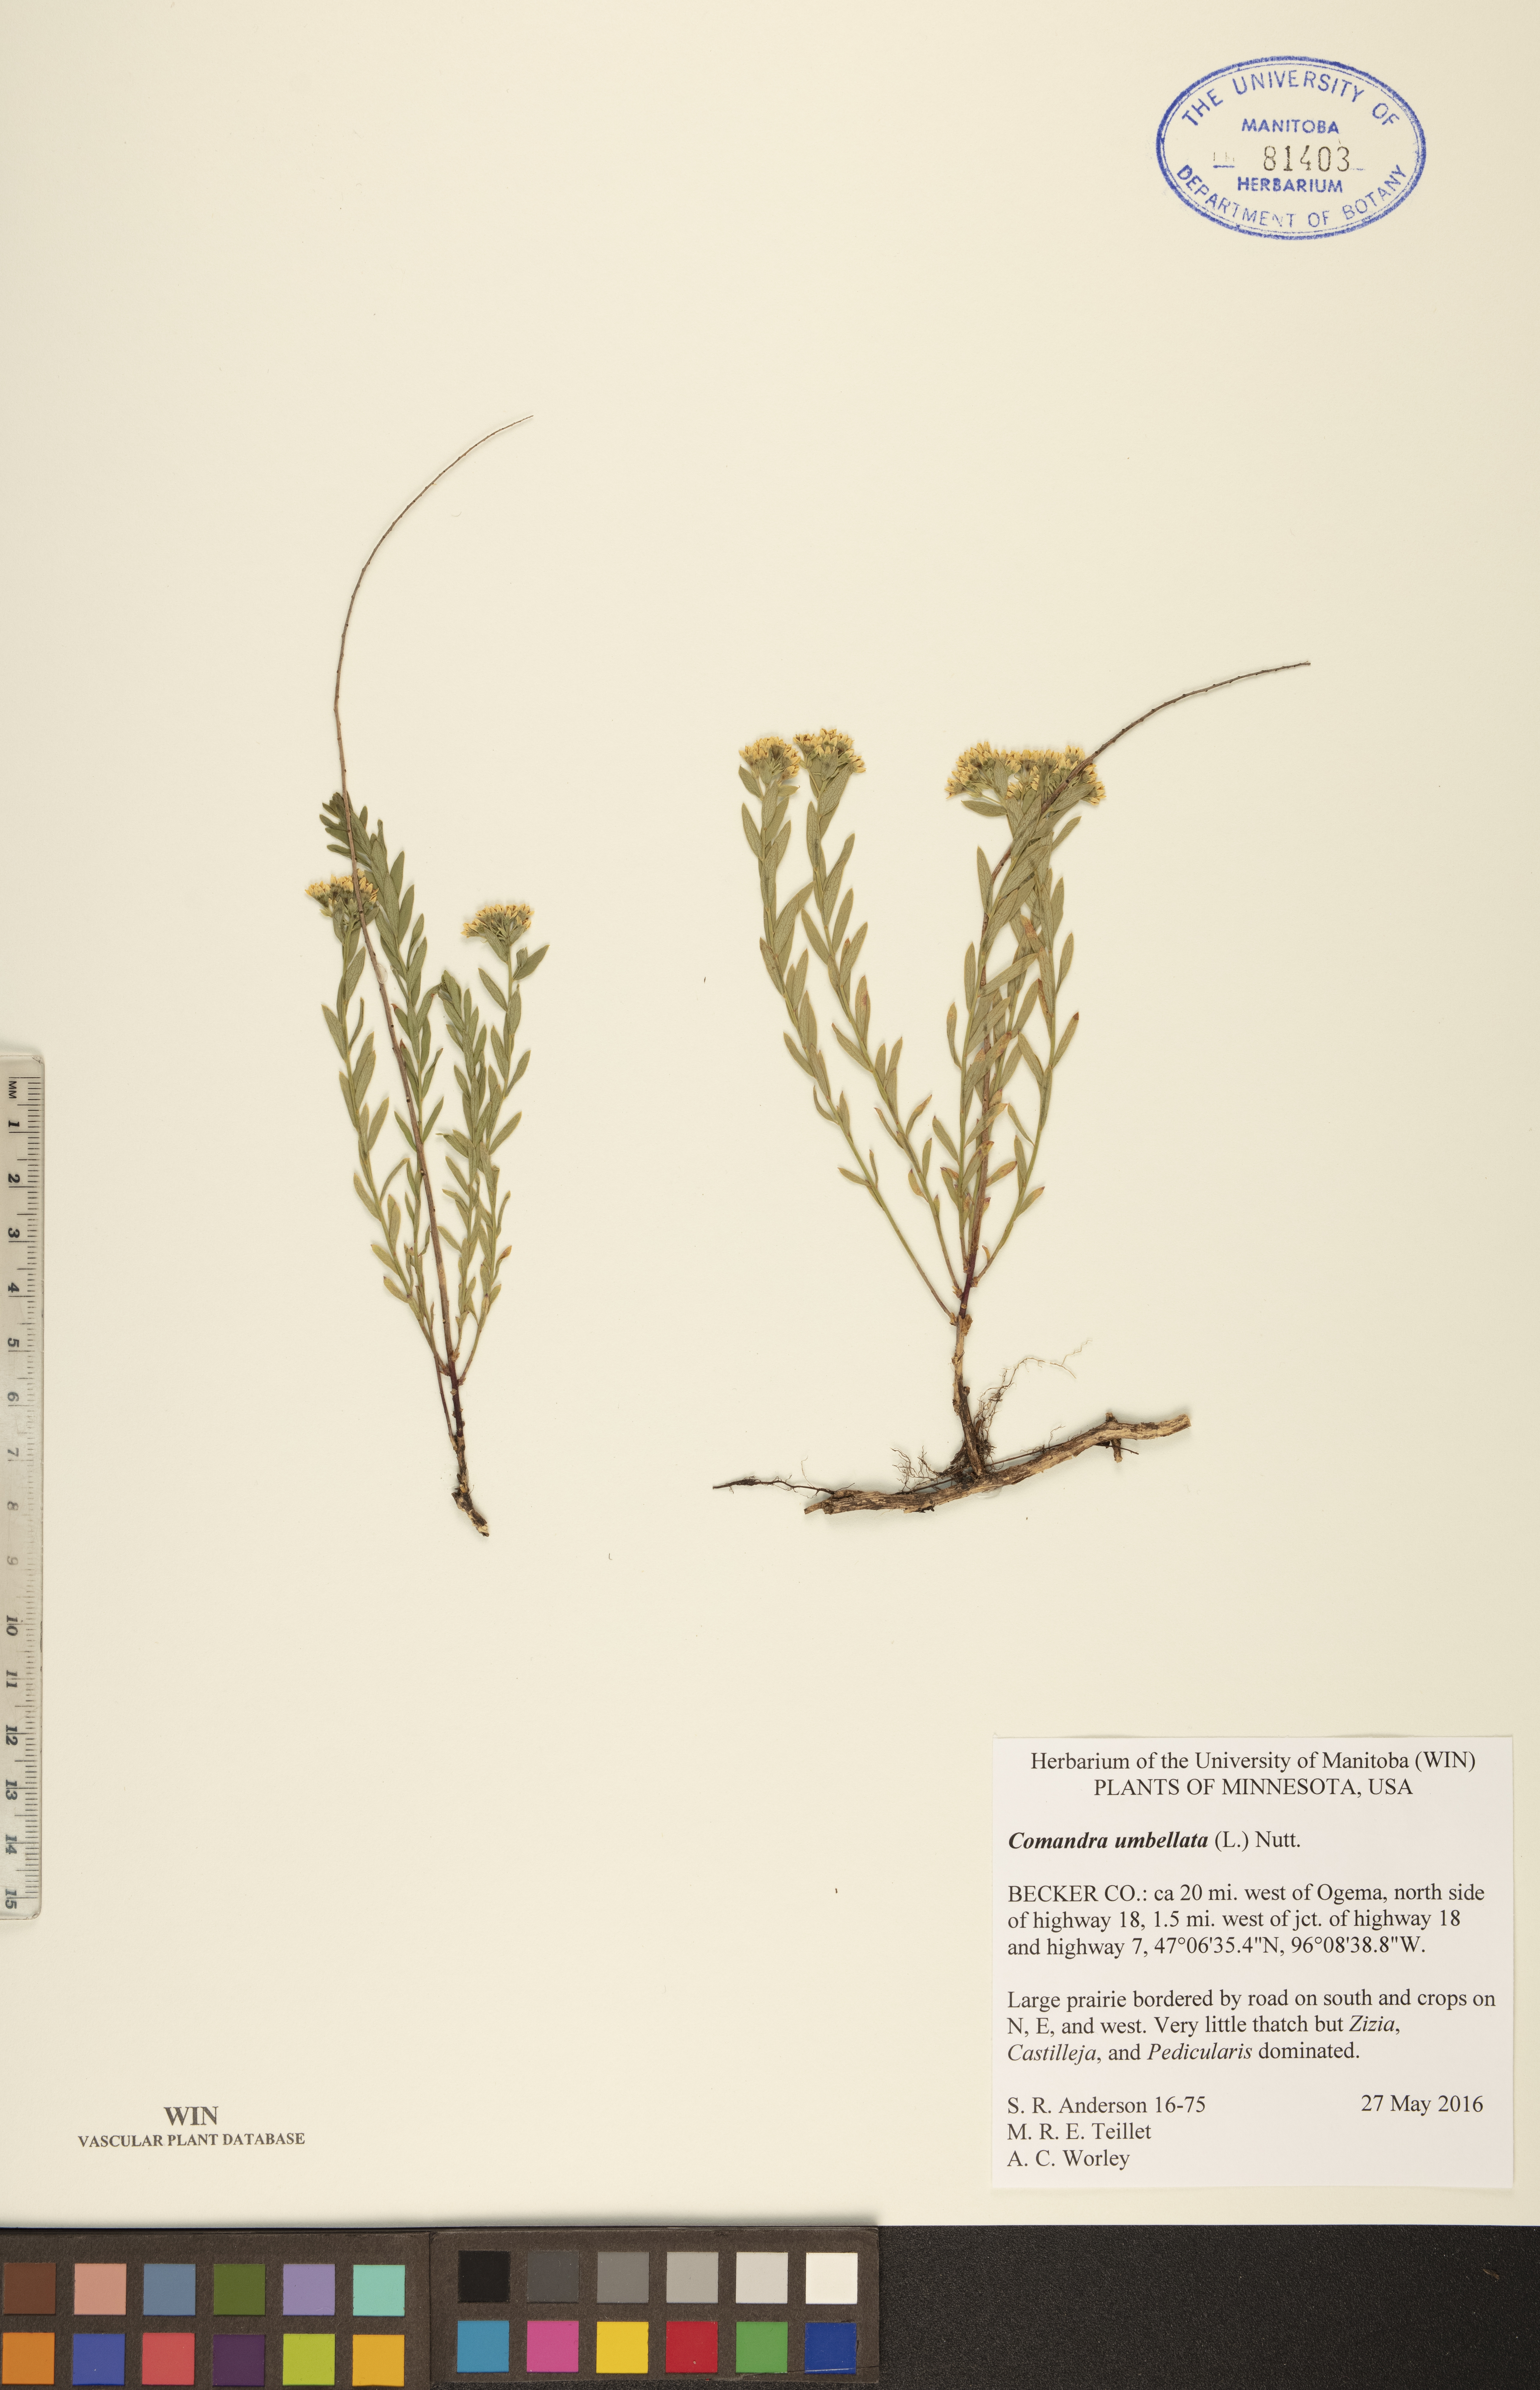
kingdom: Plantae
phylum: Tracheophyta
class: Magnoliopsida
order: Santalales
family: Comandraceae
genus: Comandra
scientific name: Comandra umbellata
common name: Bastard toadflax
